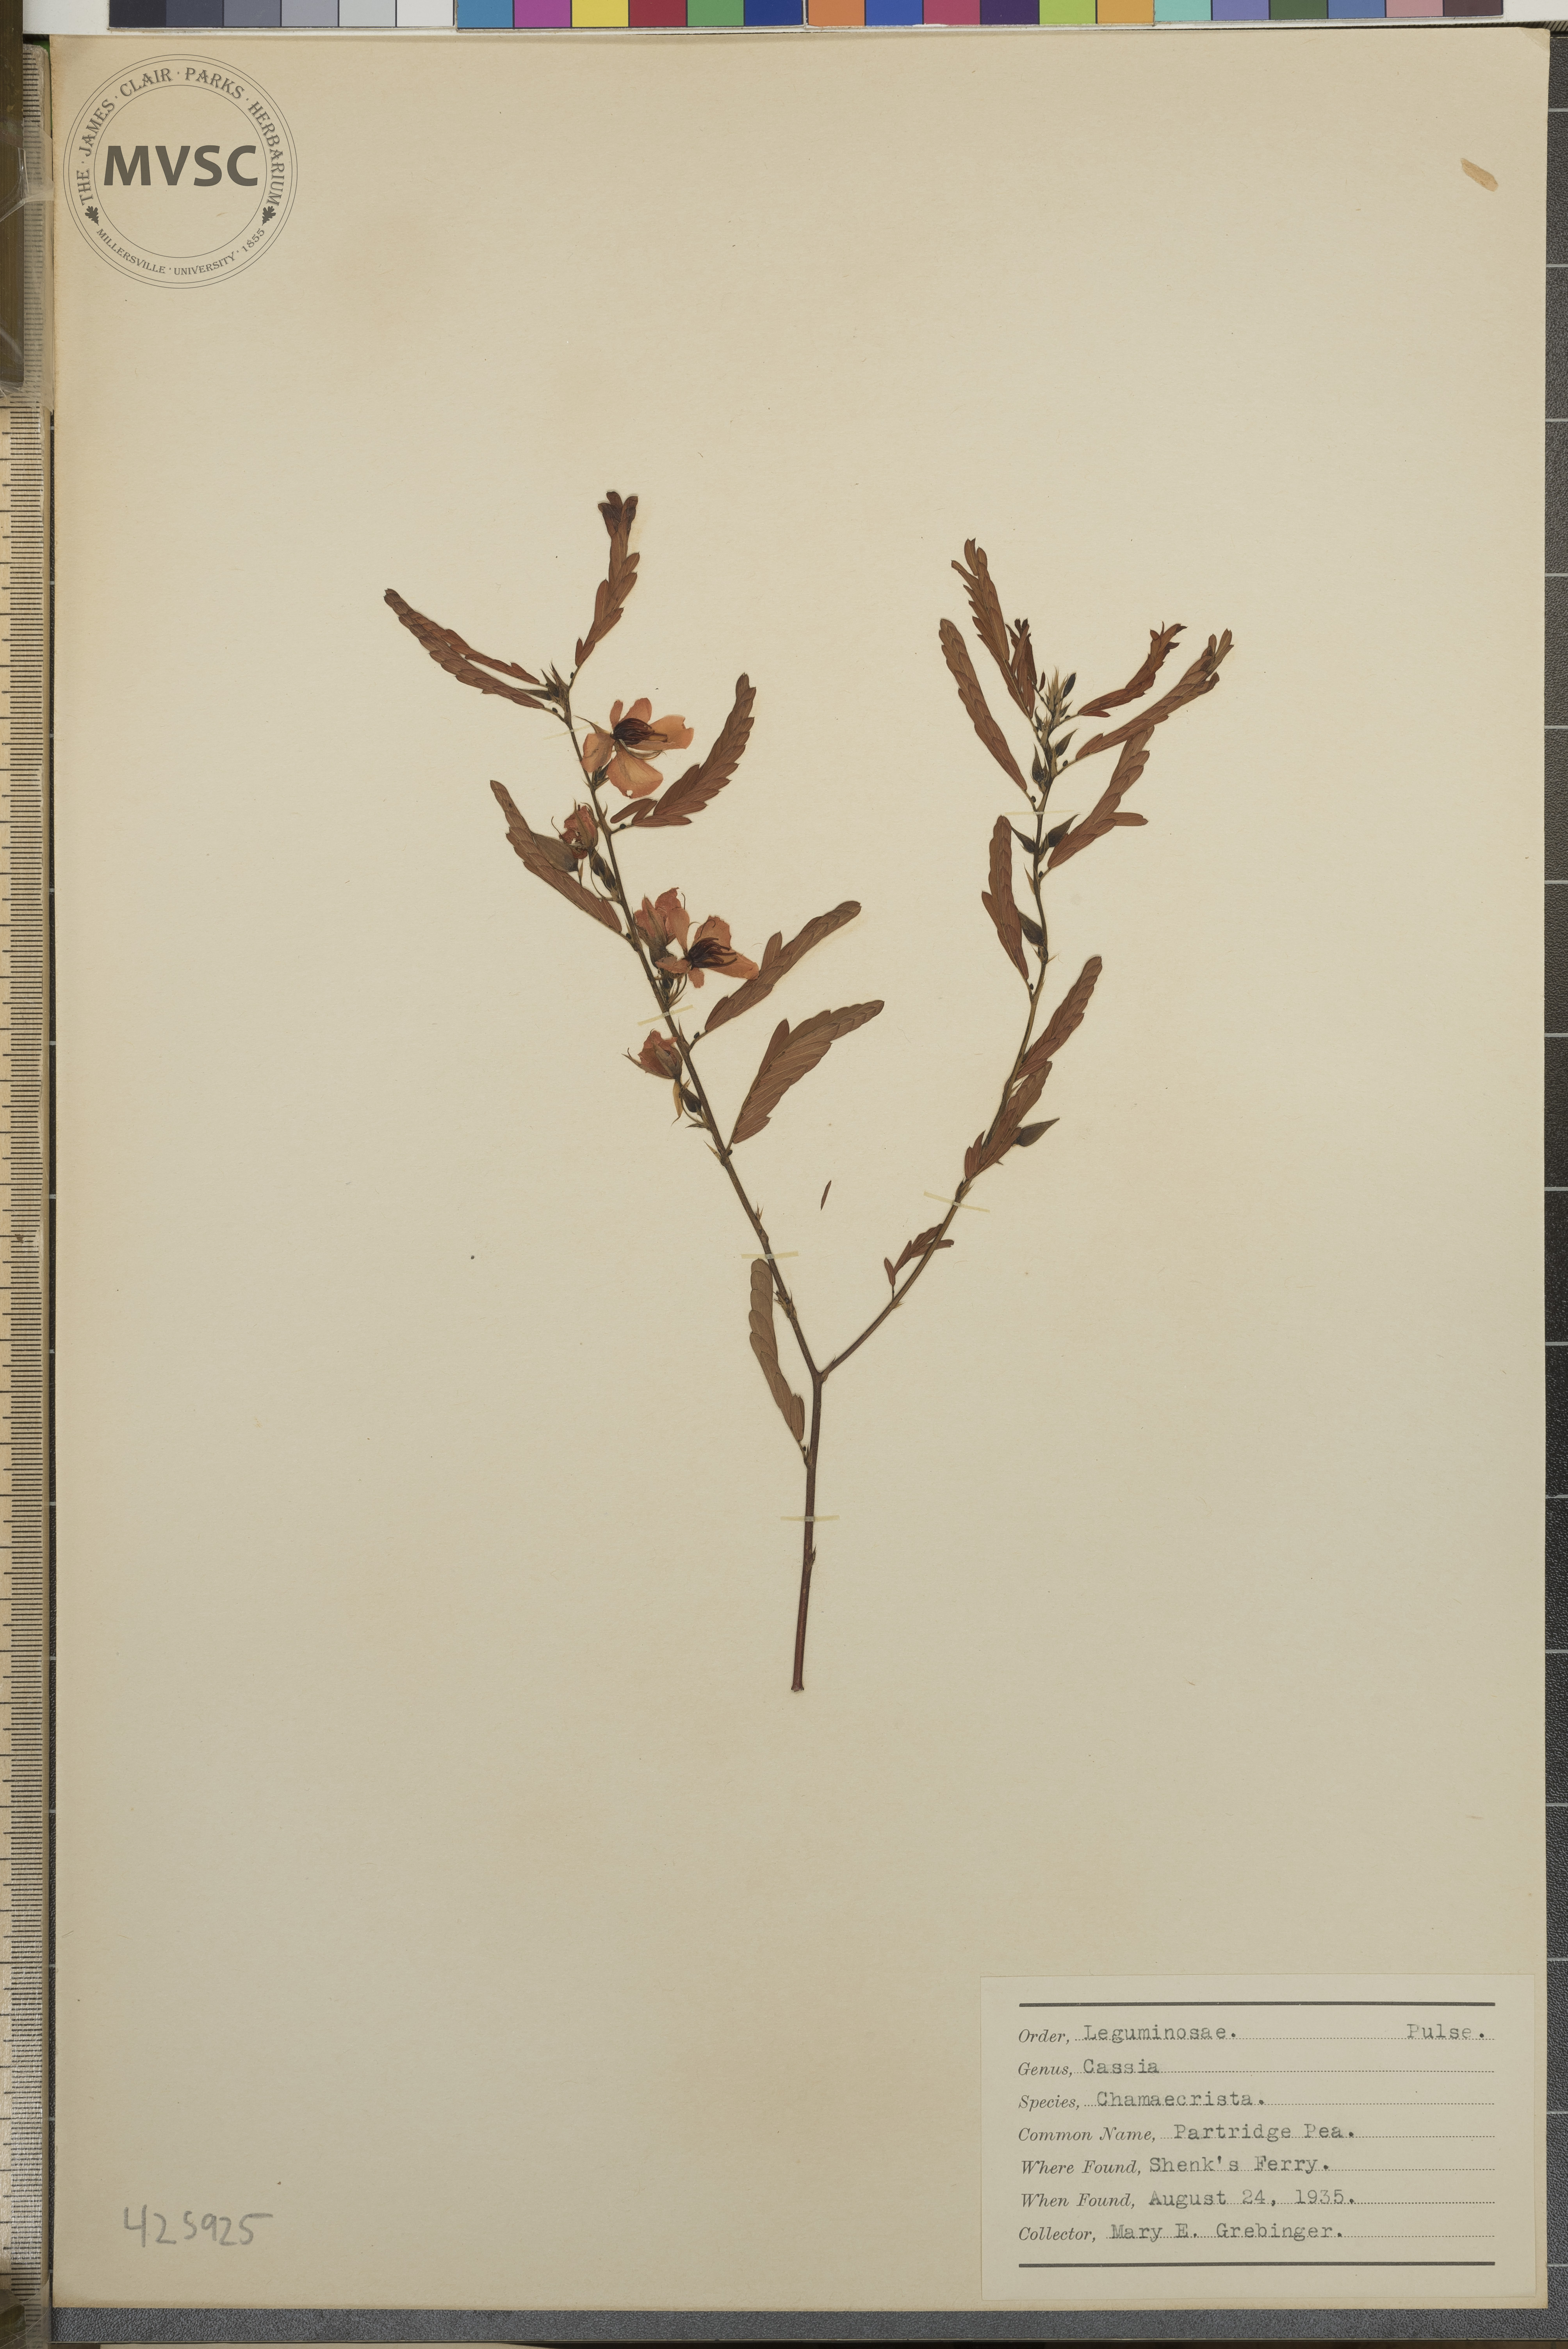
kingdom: Plantae
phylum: Tracheophyta
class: Magnoliopsida
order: Fabales
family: Fabaceae
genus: Chamaecrista
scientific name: Chamaecrista fasciculata
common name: Partridge Pea
